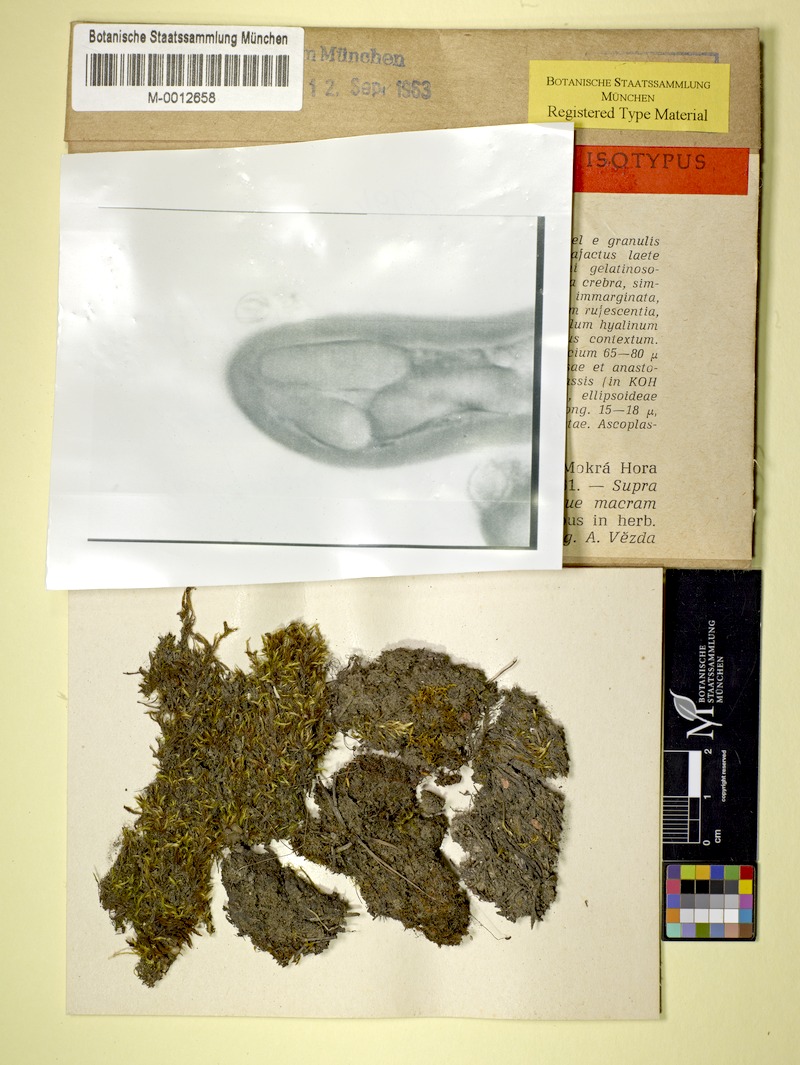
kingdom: Fungi
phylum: Ascomycota
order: Vezdaeales
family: Vezdaeaceae
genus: Vezdaea
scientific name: Vezdaea aestivalis
